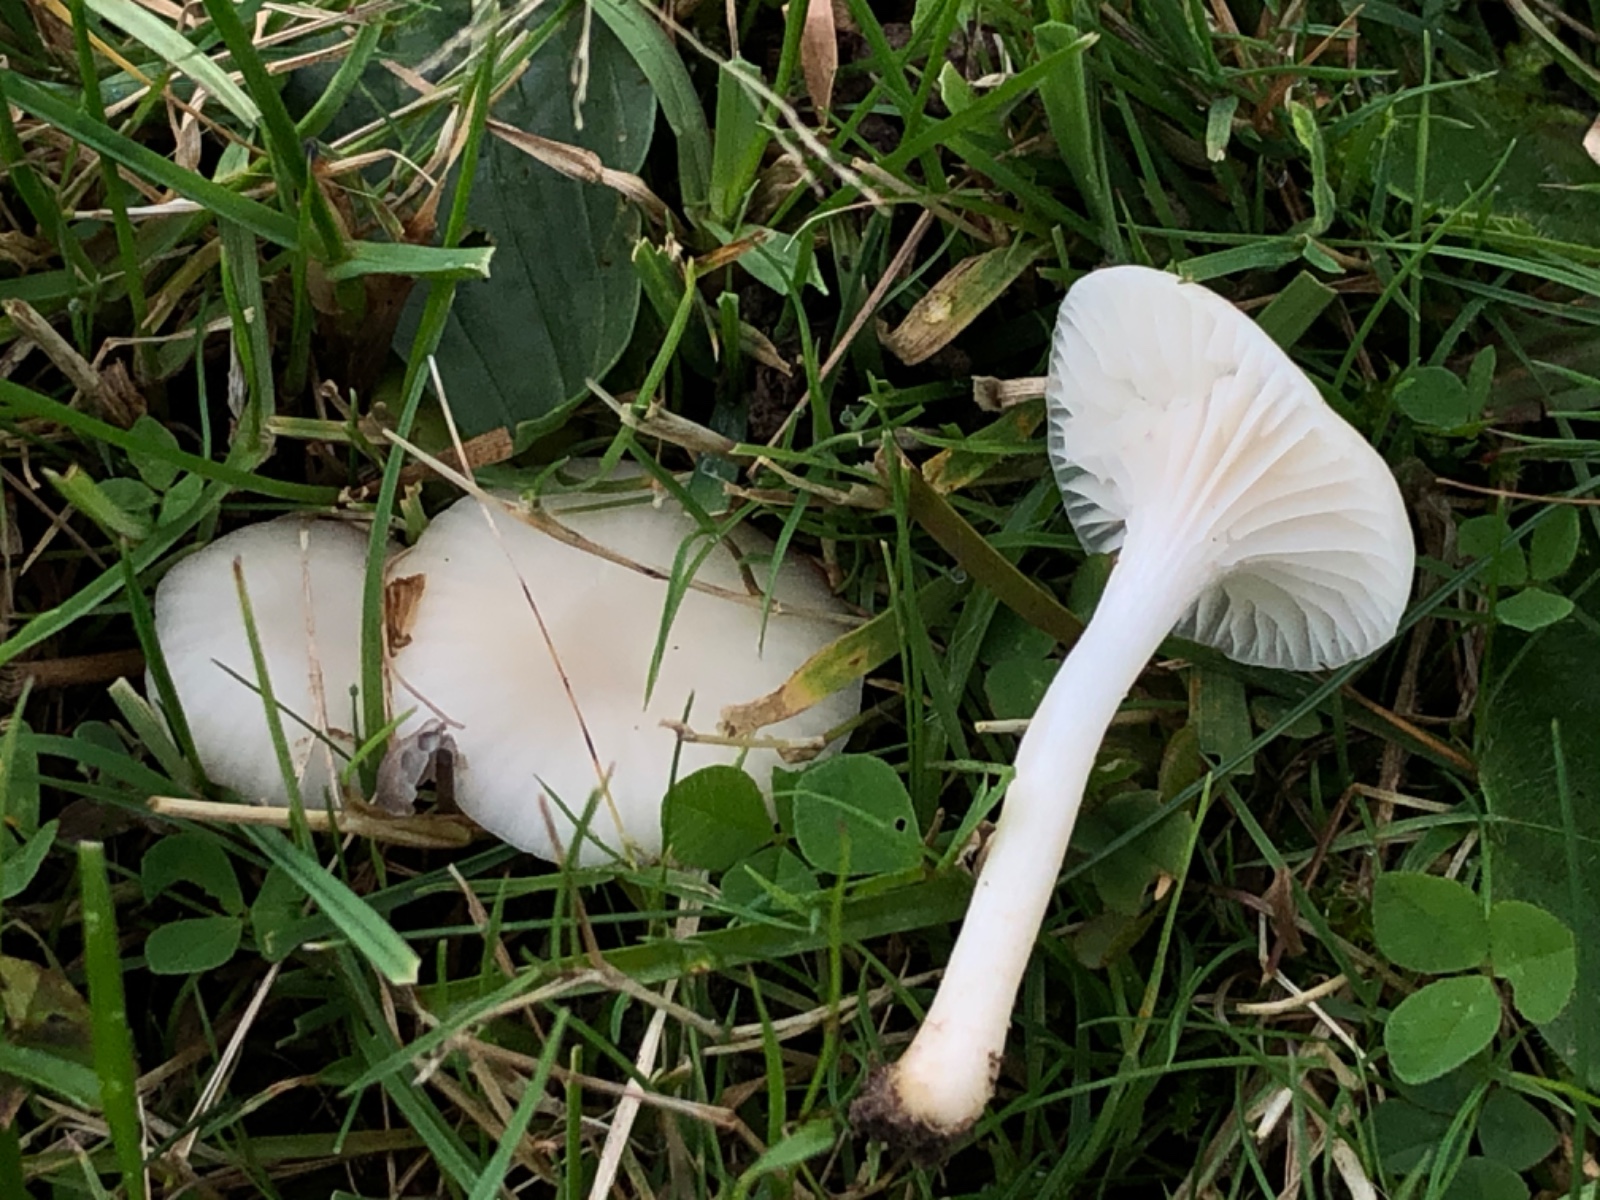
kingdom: Fungi
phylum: Basidiomycota
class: Agaricomycetes
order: Agaricales
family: Hygrophoraceae
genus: Cuphophyllus
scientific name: Cuphophyllus virgineus
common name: snehvid vokshat
